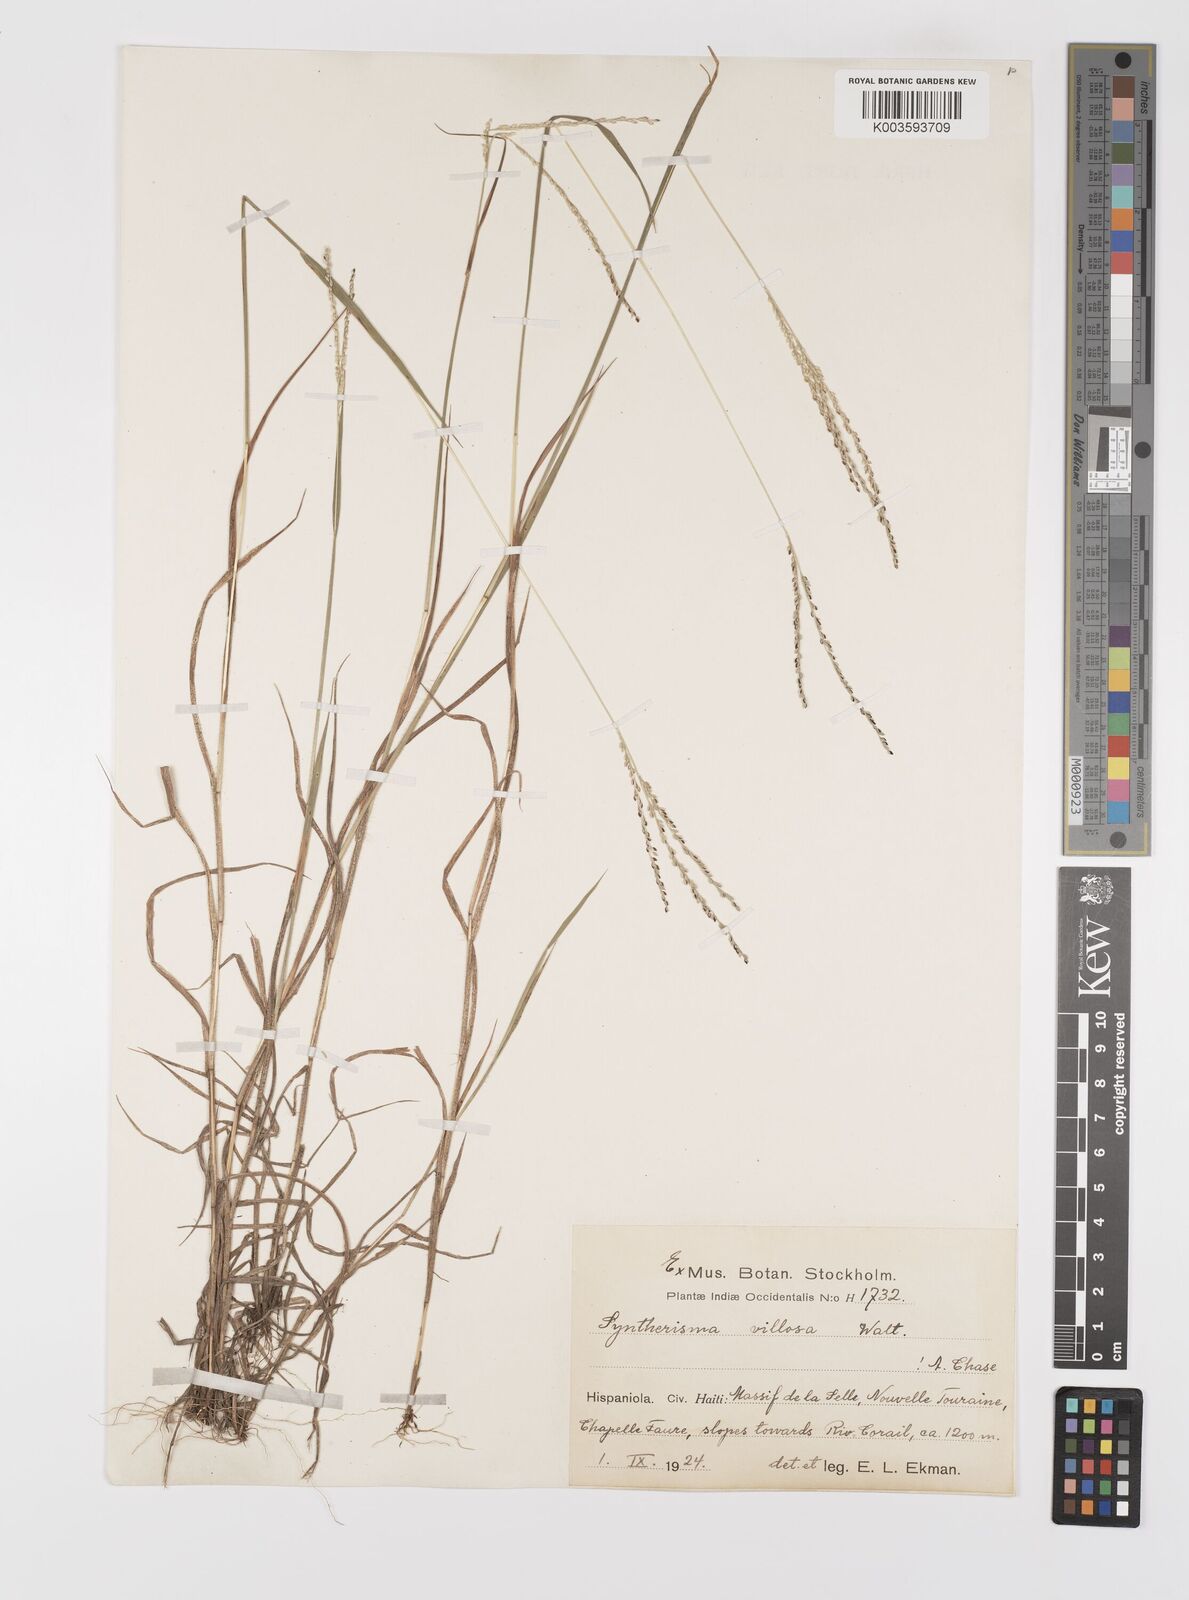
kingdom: Plantae
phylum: Tracheophyta
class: Liliopsida
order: Poales
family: Poaceae
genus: Digitaria
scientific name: Digitaria villosa
